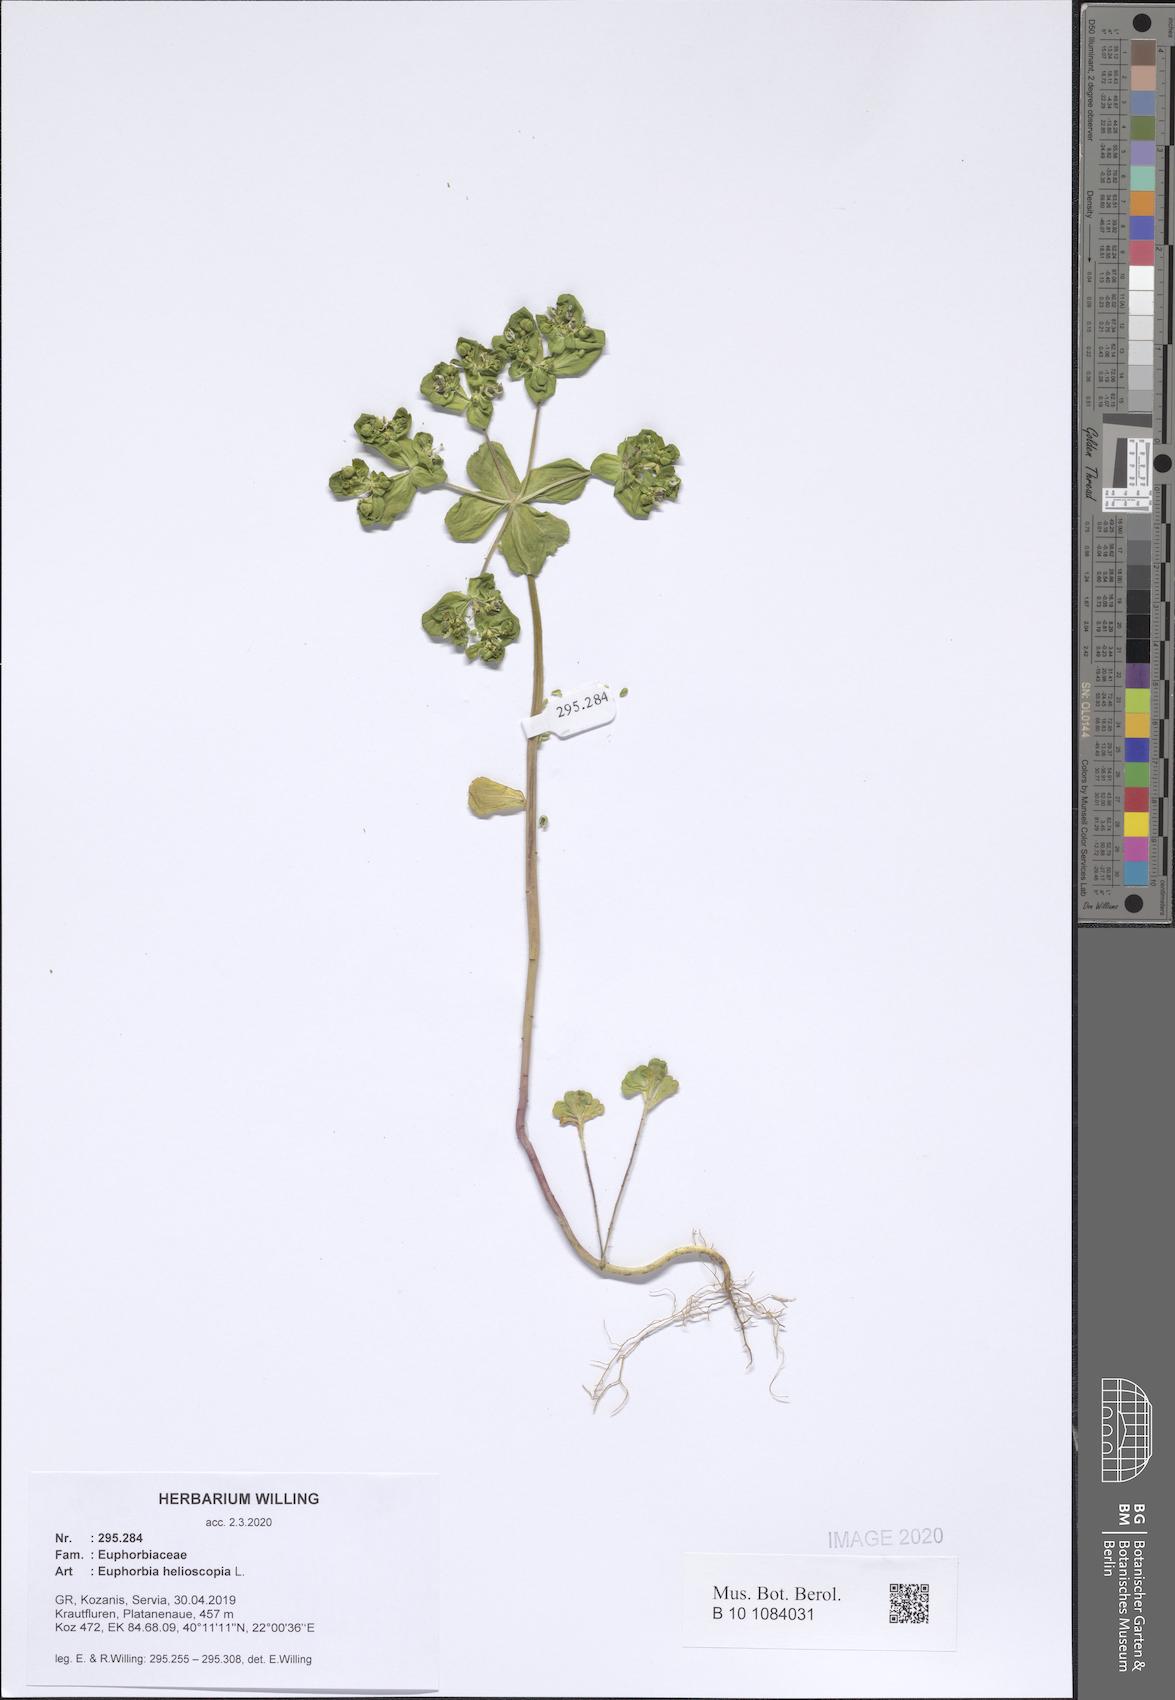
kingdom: Plantae
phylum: Tracheophyta
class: Magnoliopsida
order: Malpighiales
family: Euphorbiaceae
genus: Euphorbia
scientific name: Euphorbia helioscopia
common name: Sun spurge
